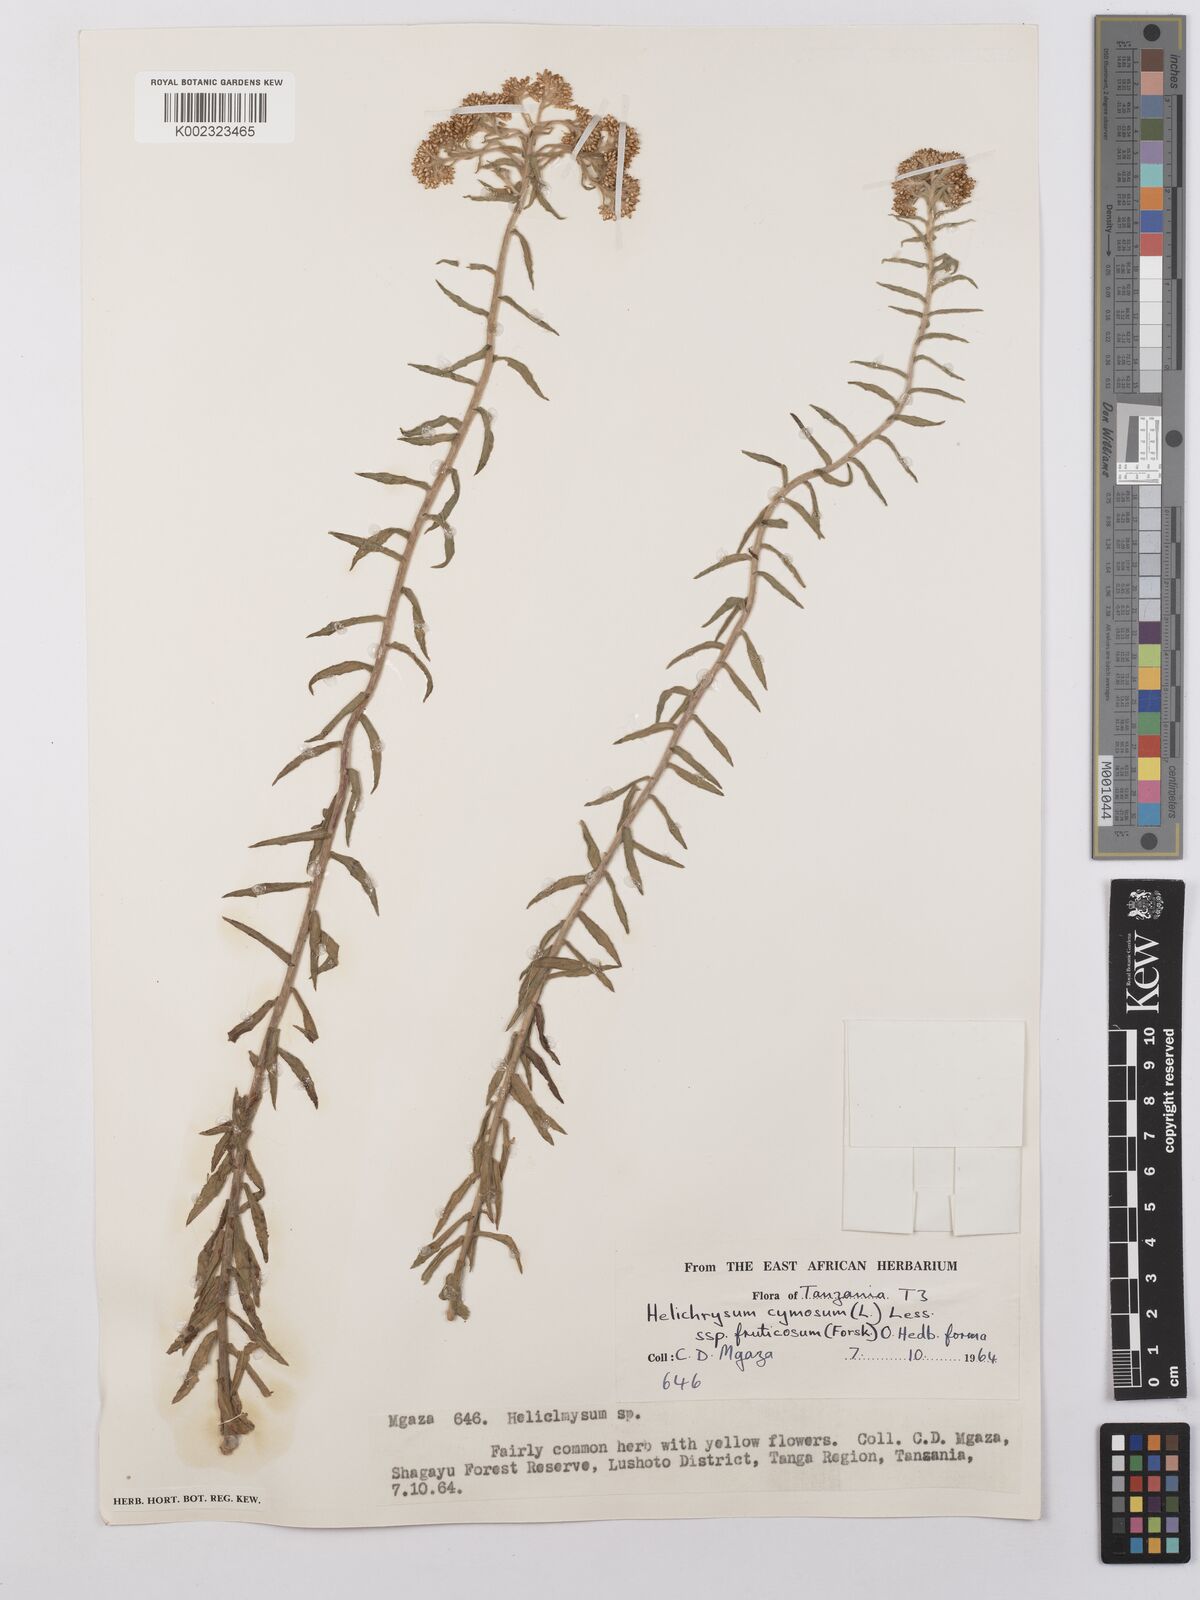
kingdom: Plantae
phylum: Tracheophyta
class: Magnoliopsida
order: Asterales
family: Asteraceae
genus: Helichrysum
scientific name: Helichrysum forskahlii
